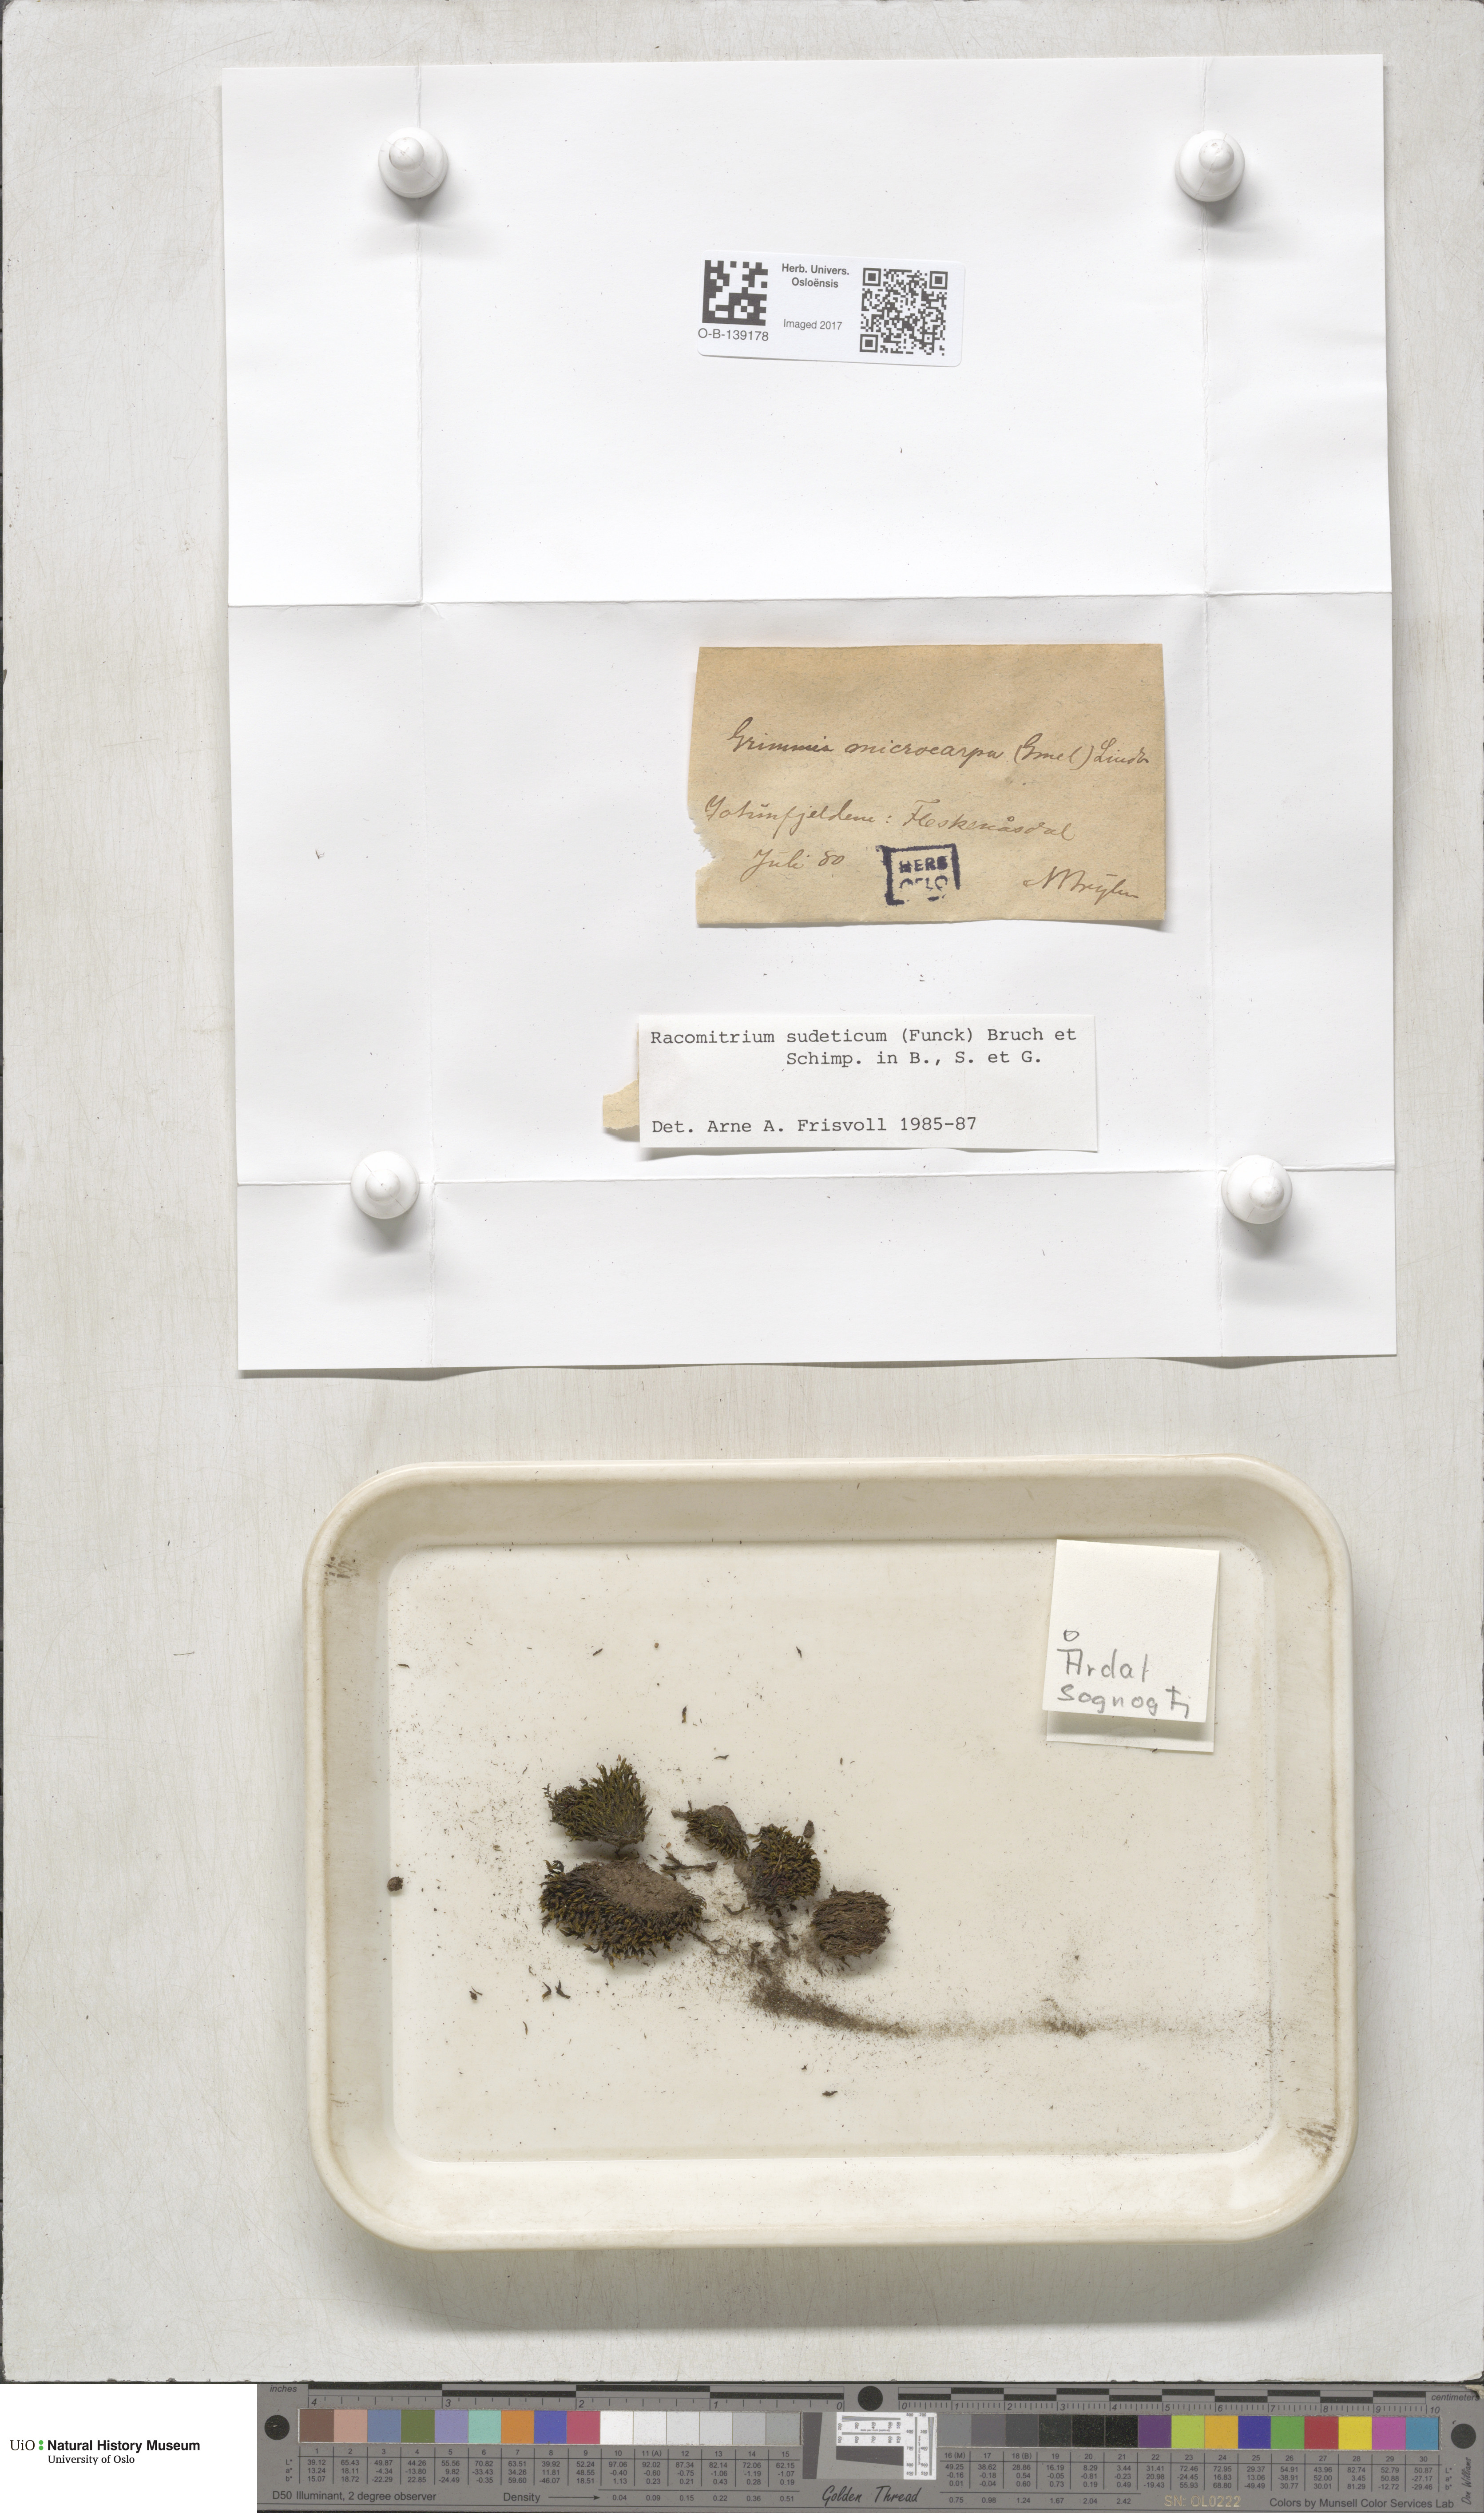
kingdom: Plantae
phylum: Bryophyta
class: Bryopsida
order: Grimmiales
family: Grimmiaceae
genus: Bucklandiella
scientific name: Bucklandiella sudetica
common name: Slender fringe-moss
